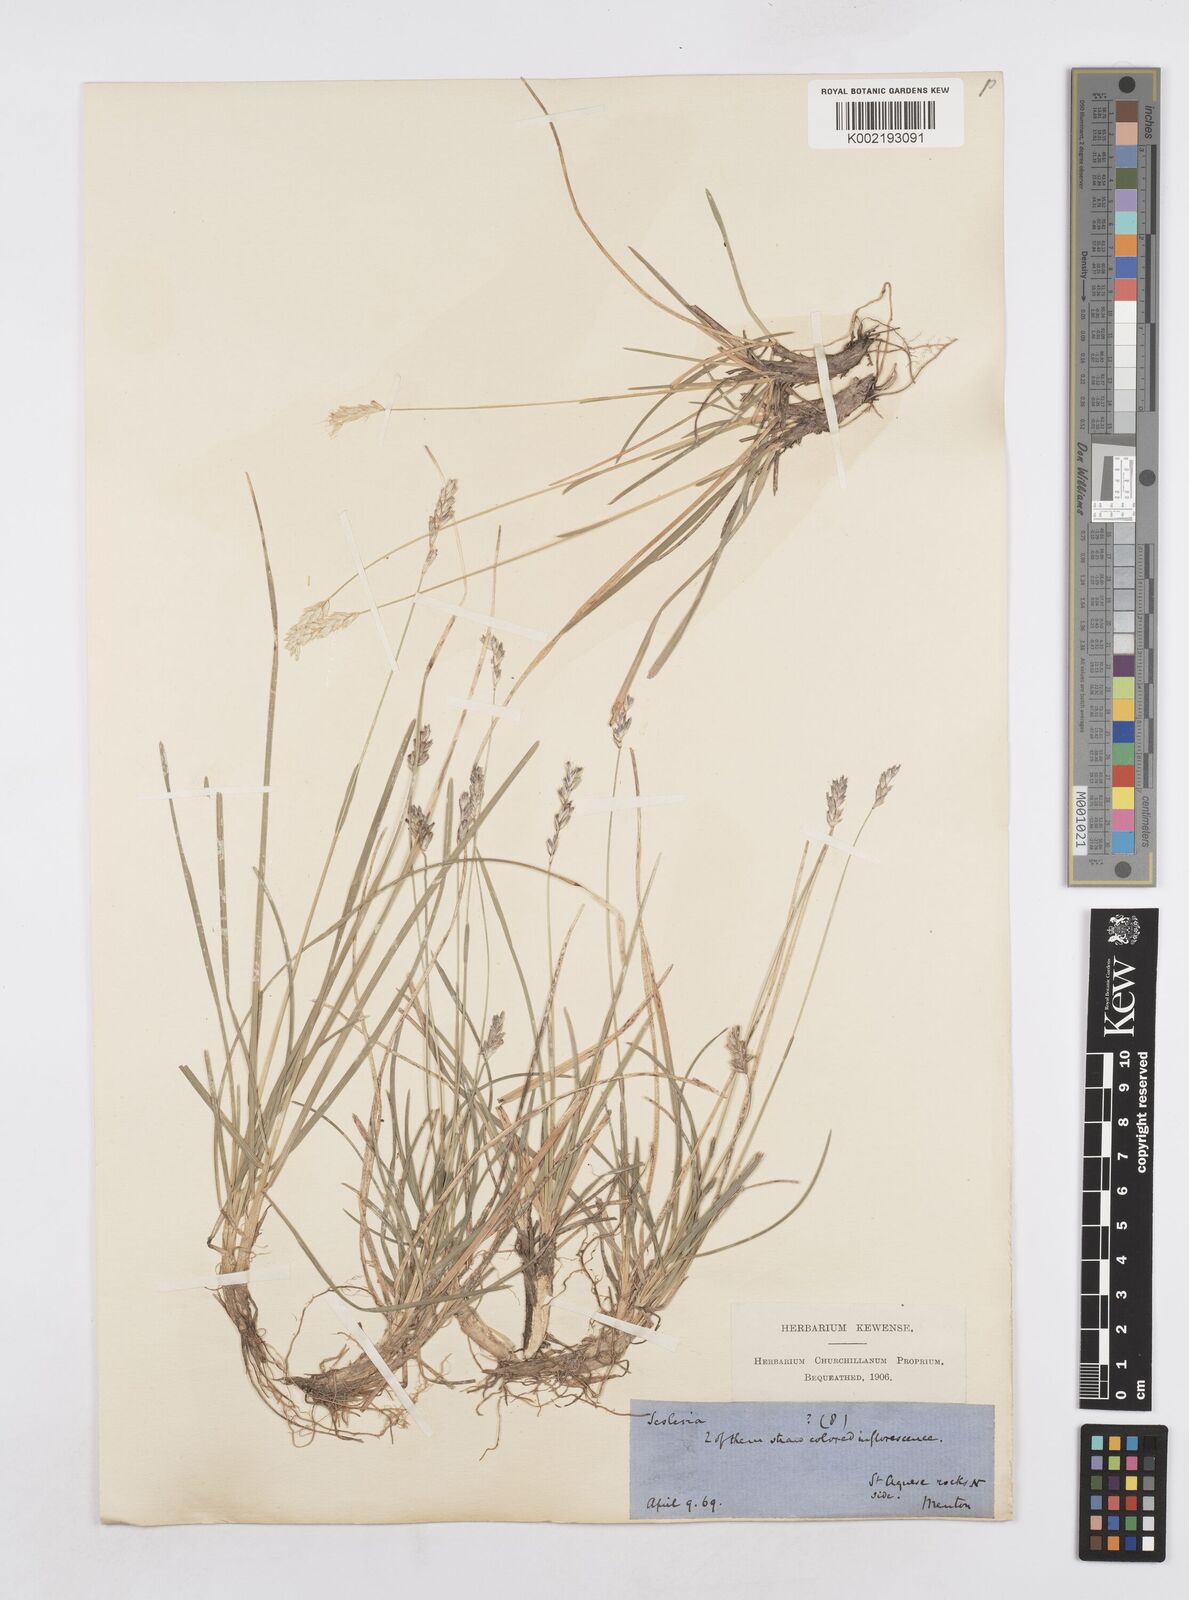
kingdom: Plantae
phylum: Tracheophyta
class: Liliopsida
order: Poales
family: Poaceae
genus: Sesleria
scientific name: Sesleria
